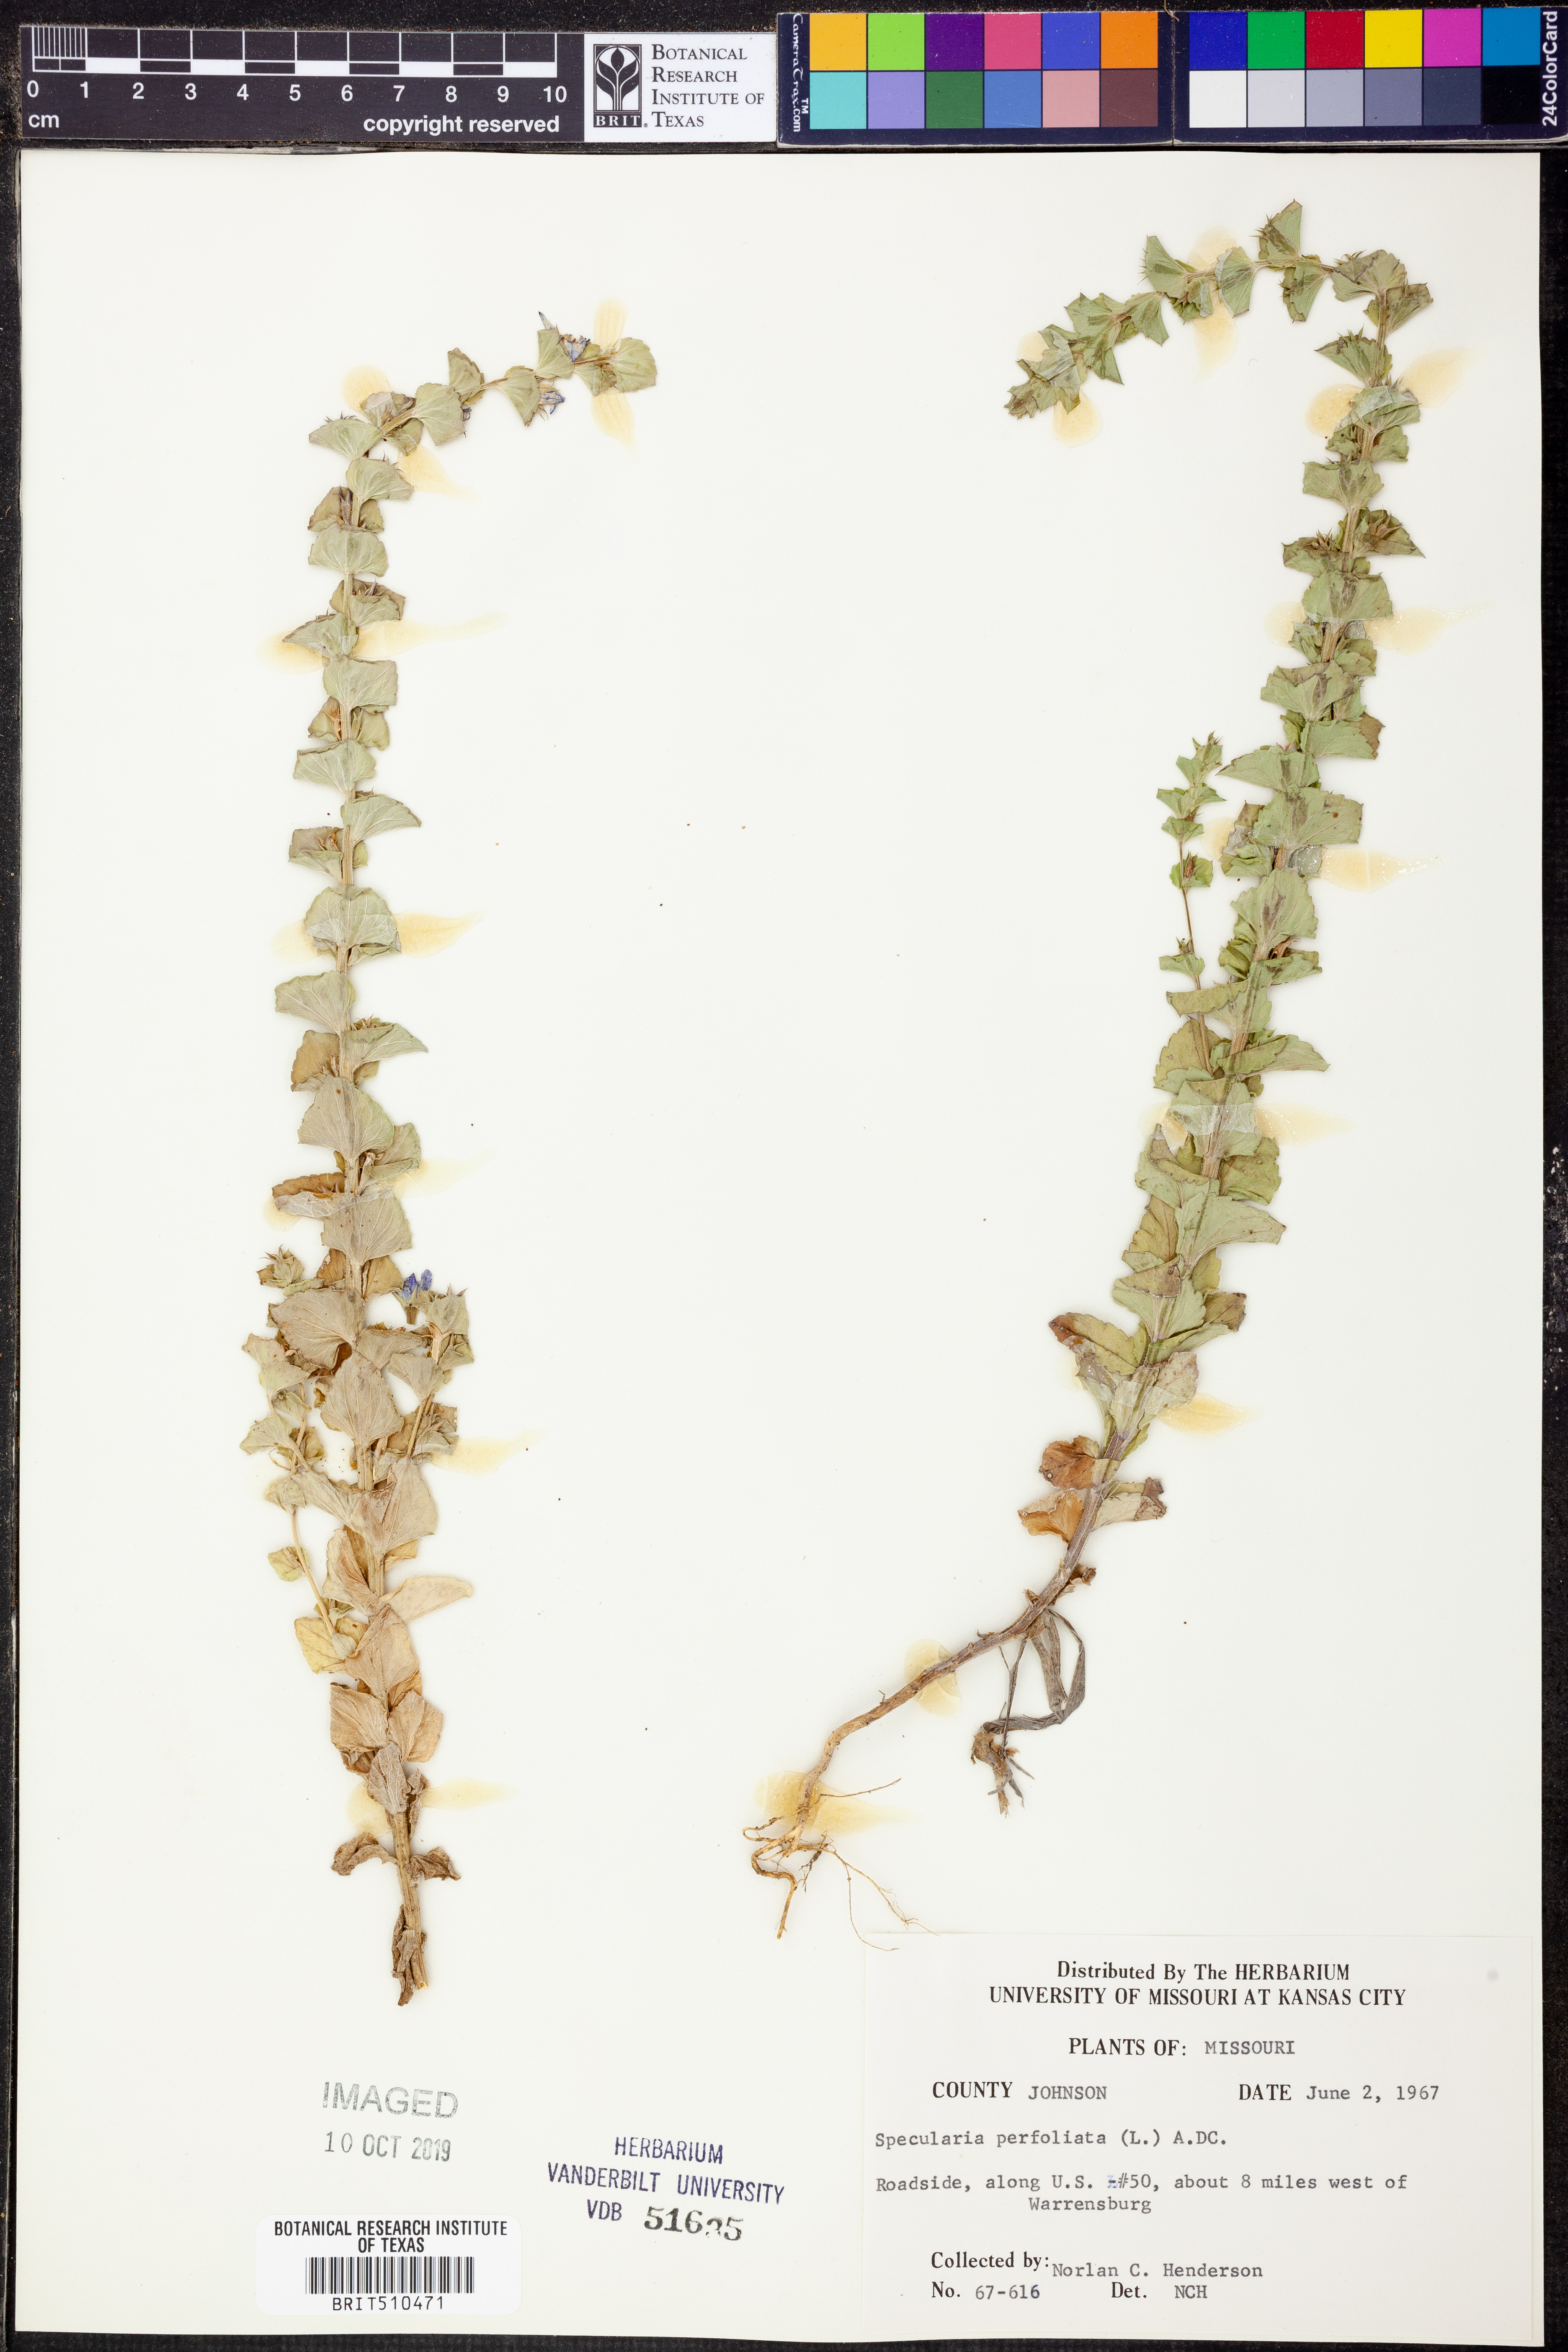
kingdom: Plantae
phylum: Tracheophyta
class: Magnoliopsida
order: Asterales
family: Campanulaceae
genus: Triodanis
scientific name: Triodanis perfoliata
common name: Clasping venus' looking-glass
